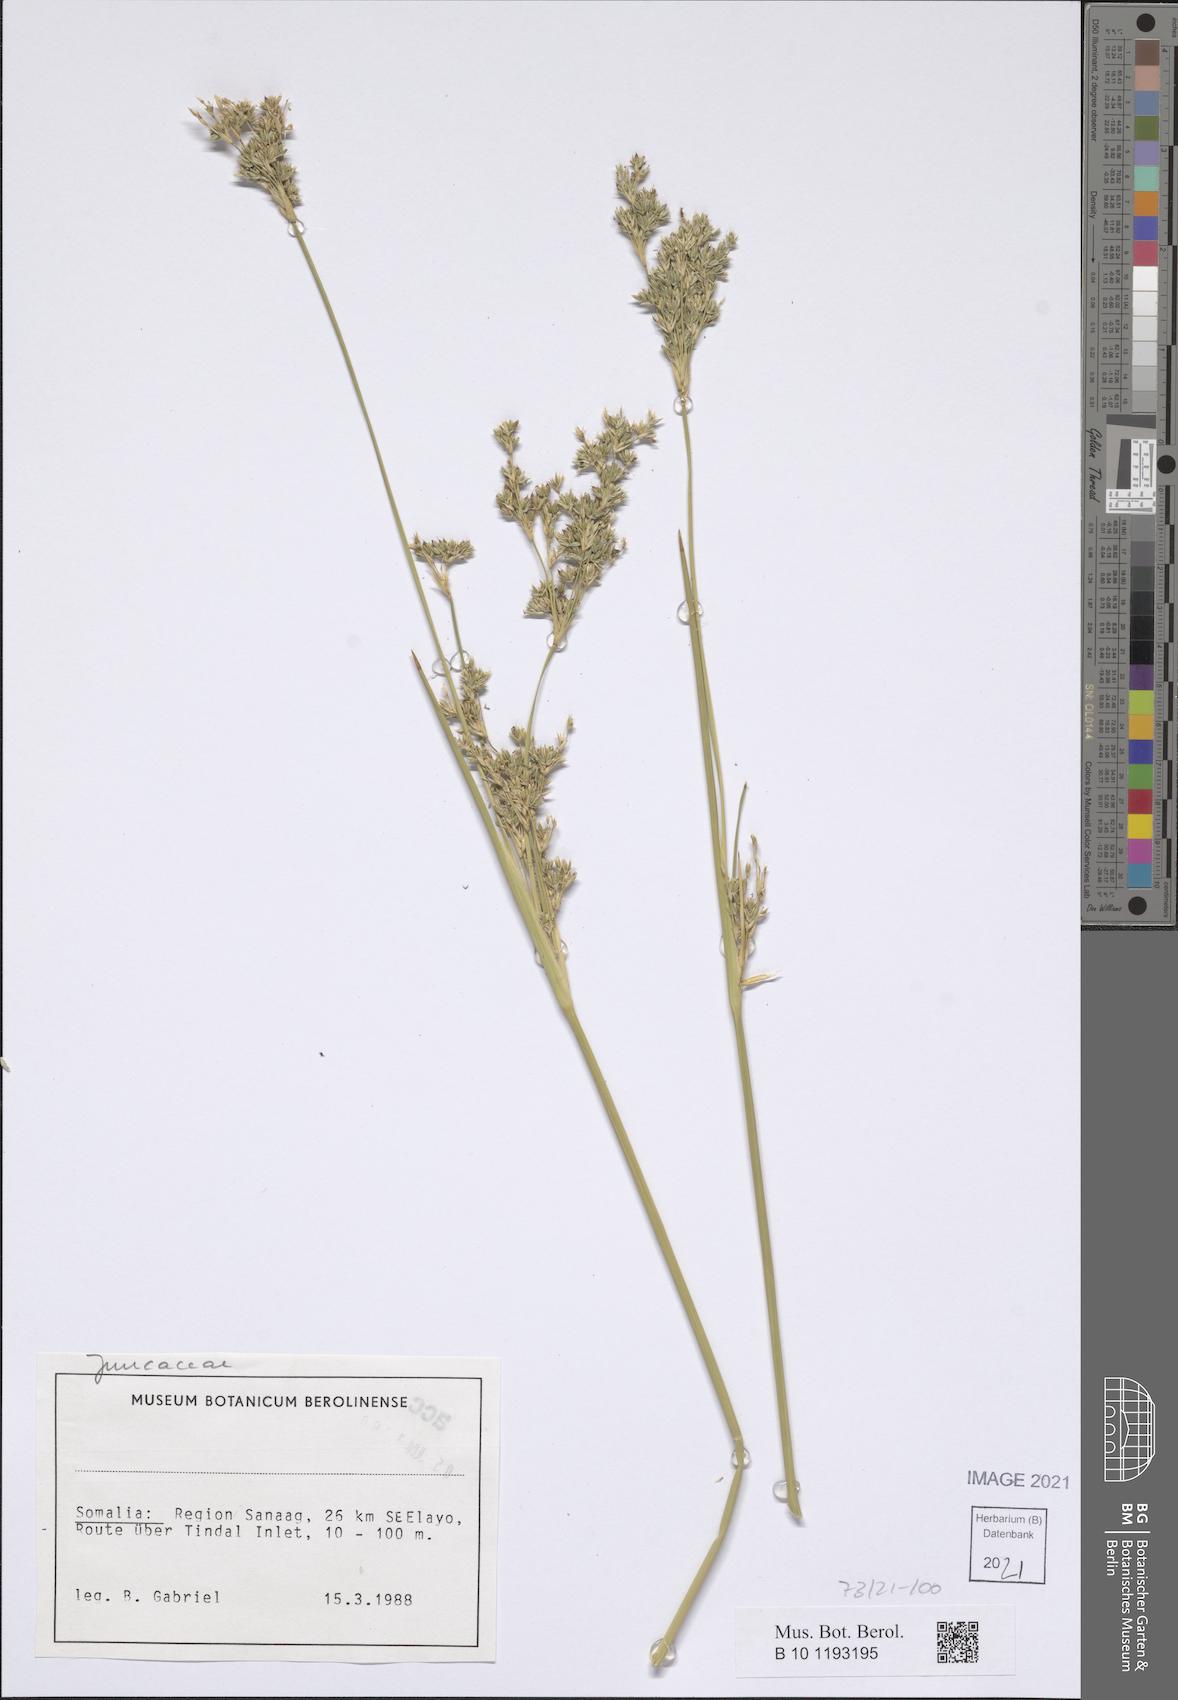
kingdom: Plantae
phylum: Tracheophyta
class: Liliopsida
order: Poales
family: Juncaceae
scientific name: Juncaceae
